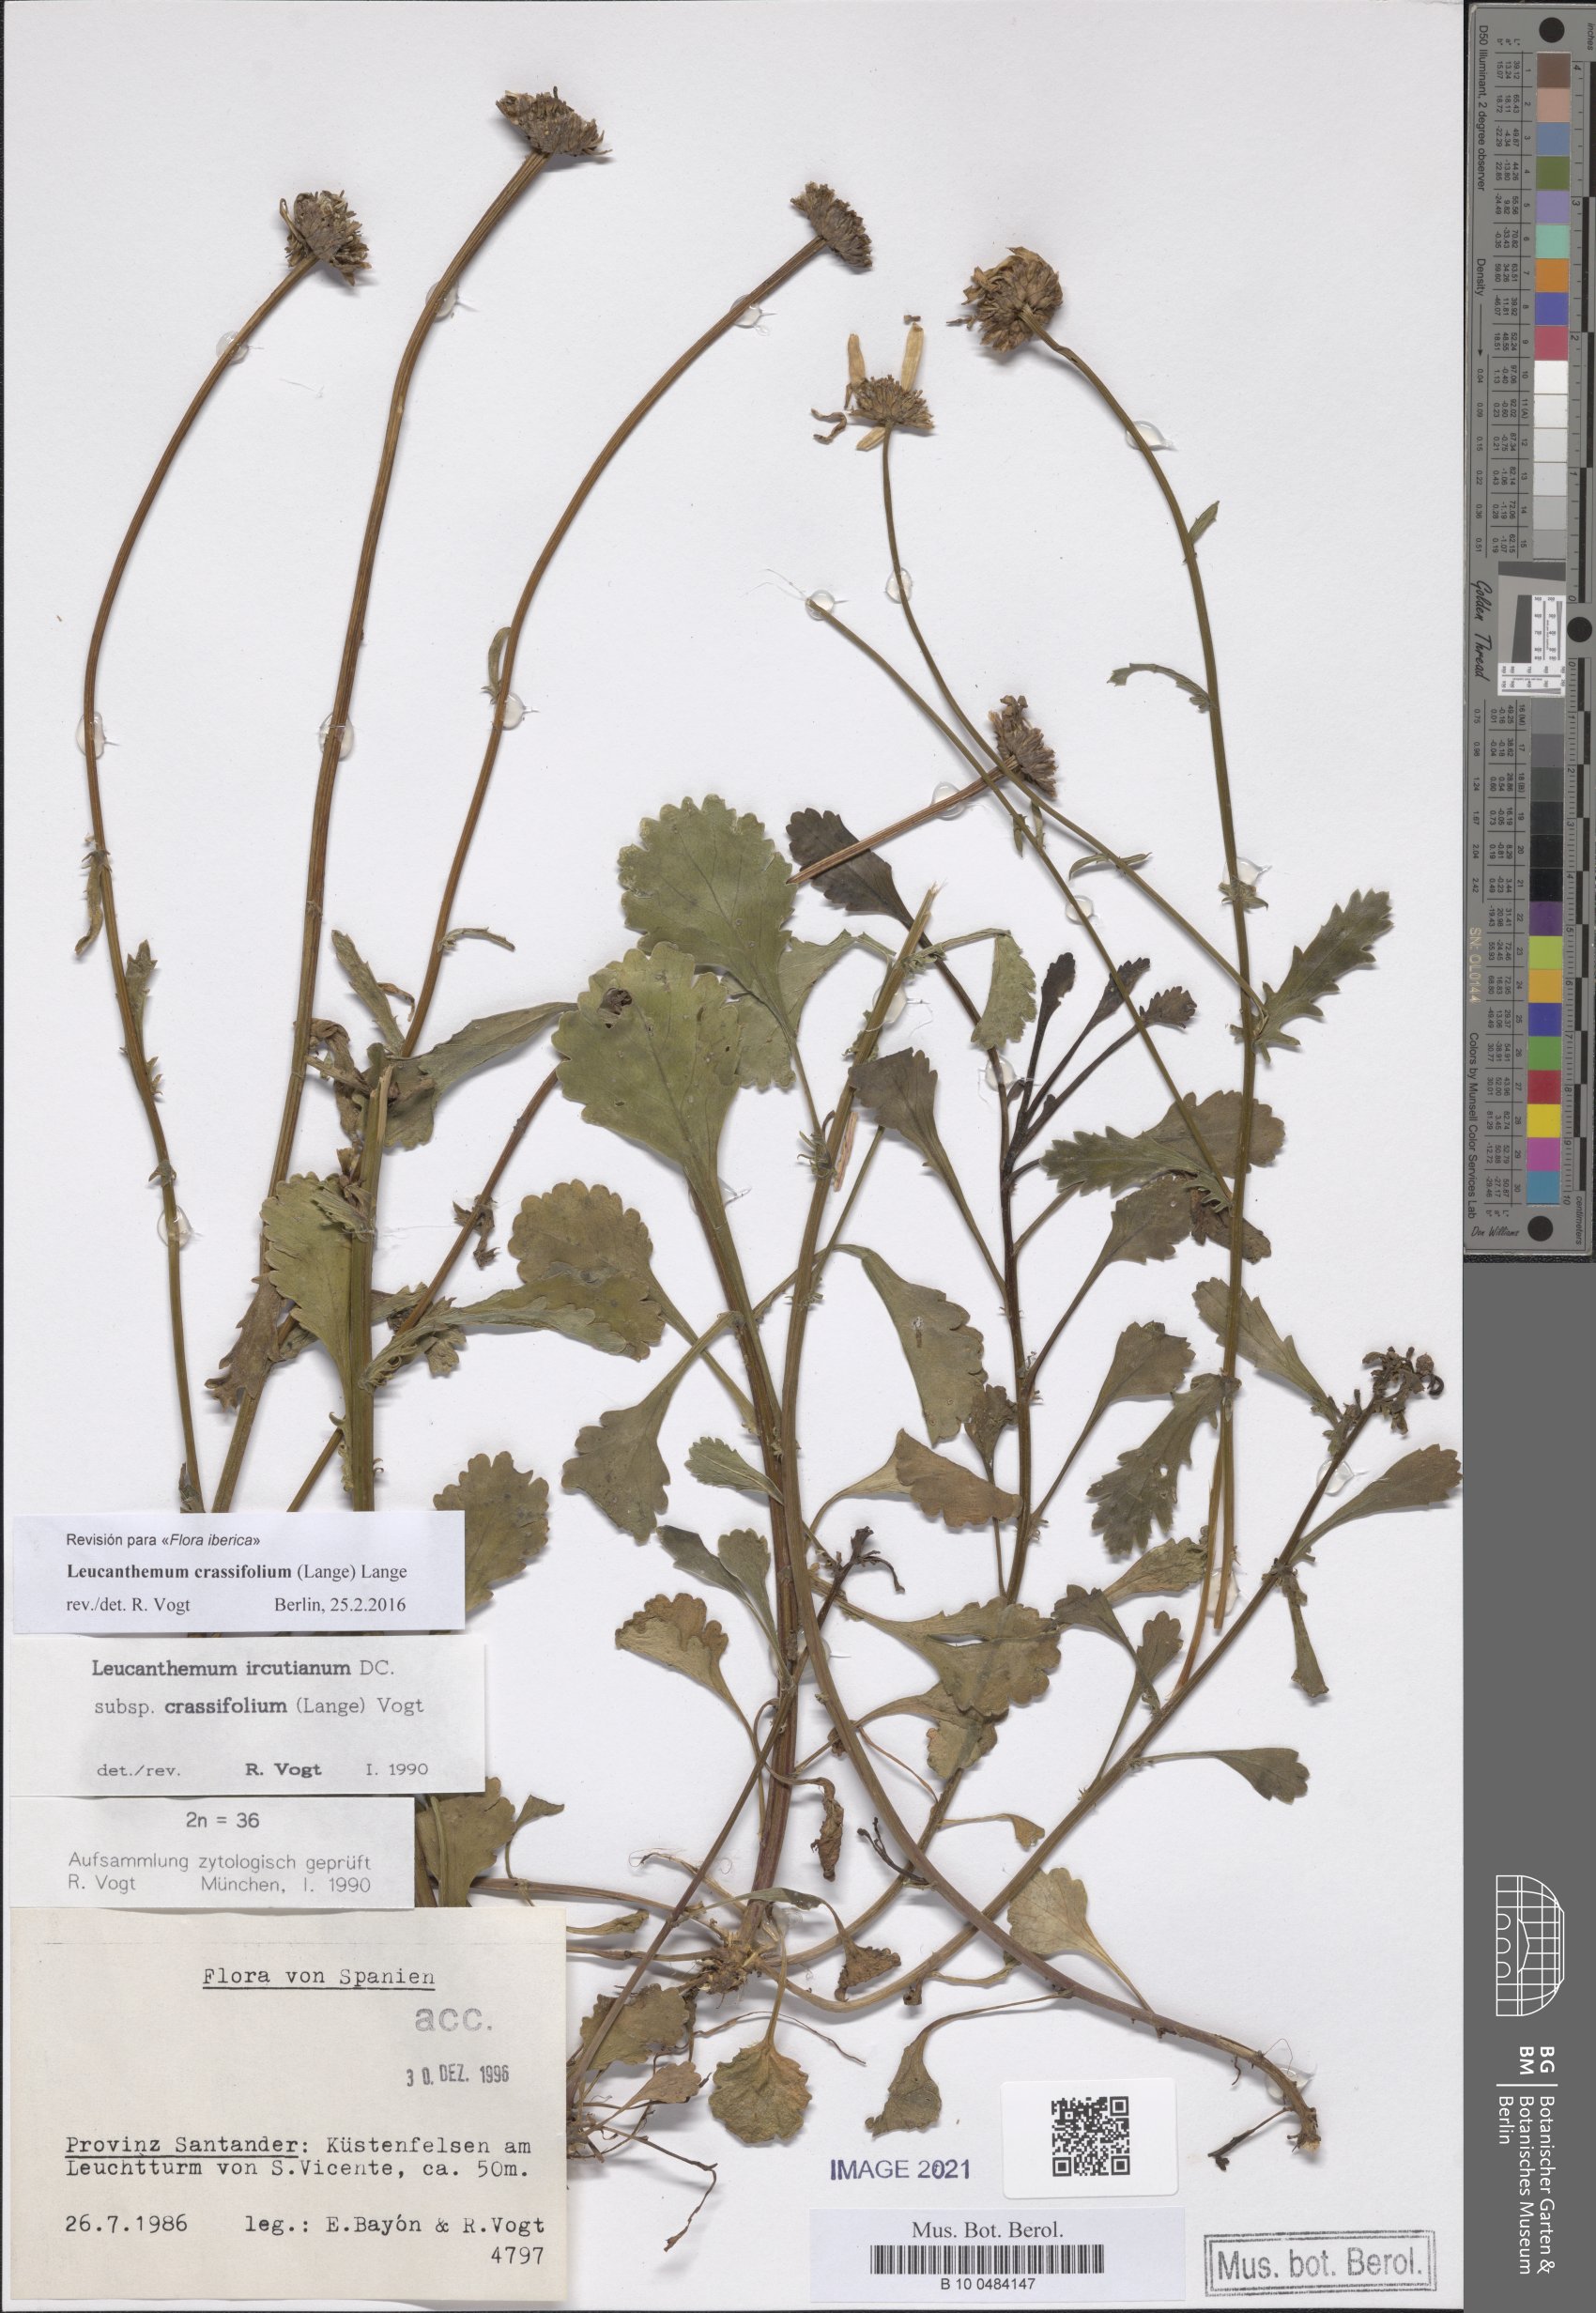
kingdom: Plantae
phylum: Tracheophyta
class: Magnoliopsida
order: Asterales
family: Asteraceae
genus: Leucanthemum
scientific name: Leucanthemum crassifolium
